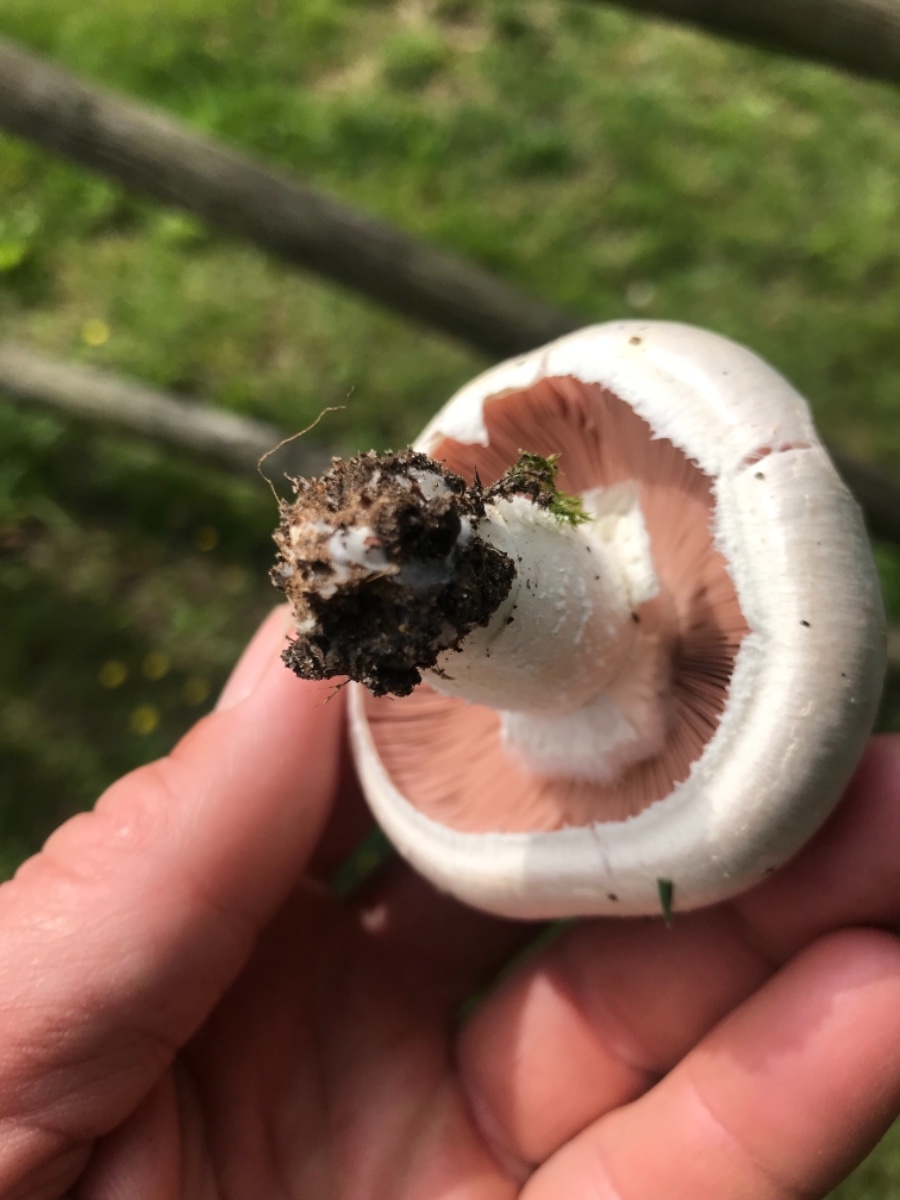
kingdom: Fungi
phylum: Basidiomycota
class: Agaricomycetes
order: Agaricales
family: Agaricaceae
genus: Agaricus
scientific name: Agaricus campestris
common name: mark-champignon
